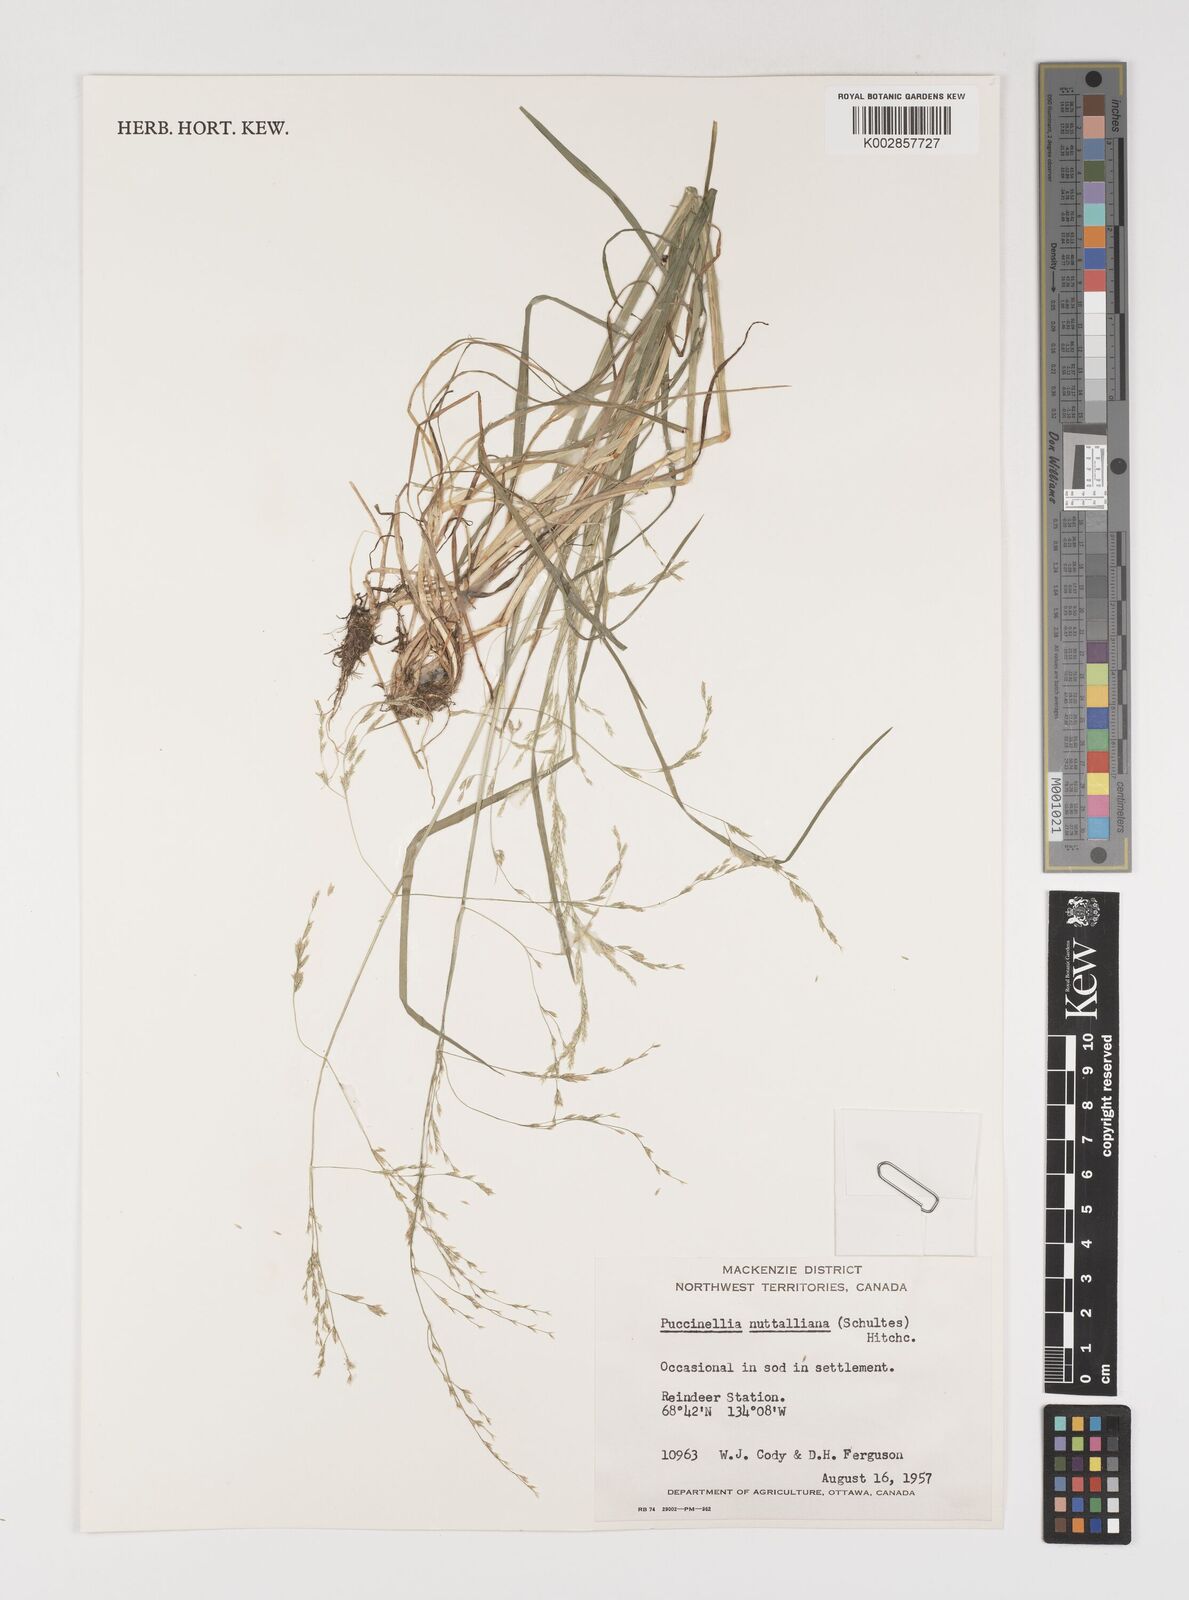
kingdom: Plantae
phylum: Tracheophyta
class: Liliopsida
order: Poales
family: Poaceae
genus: Puccinellia
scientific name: Puccinellia nuttalliana
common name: Nuttall's alkali grass
